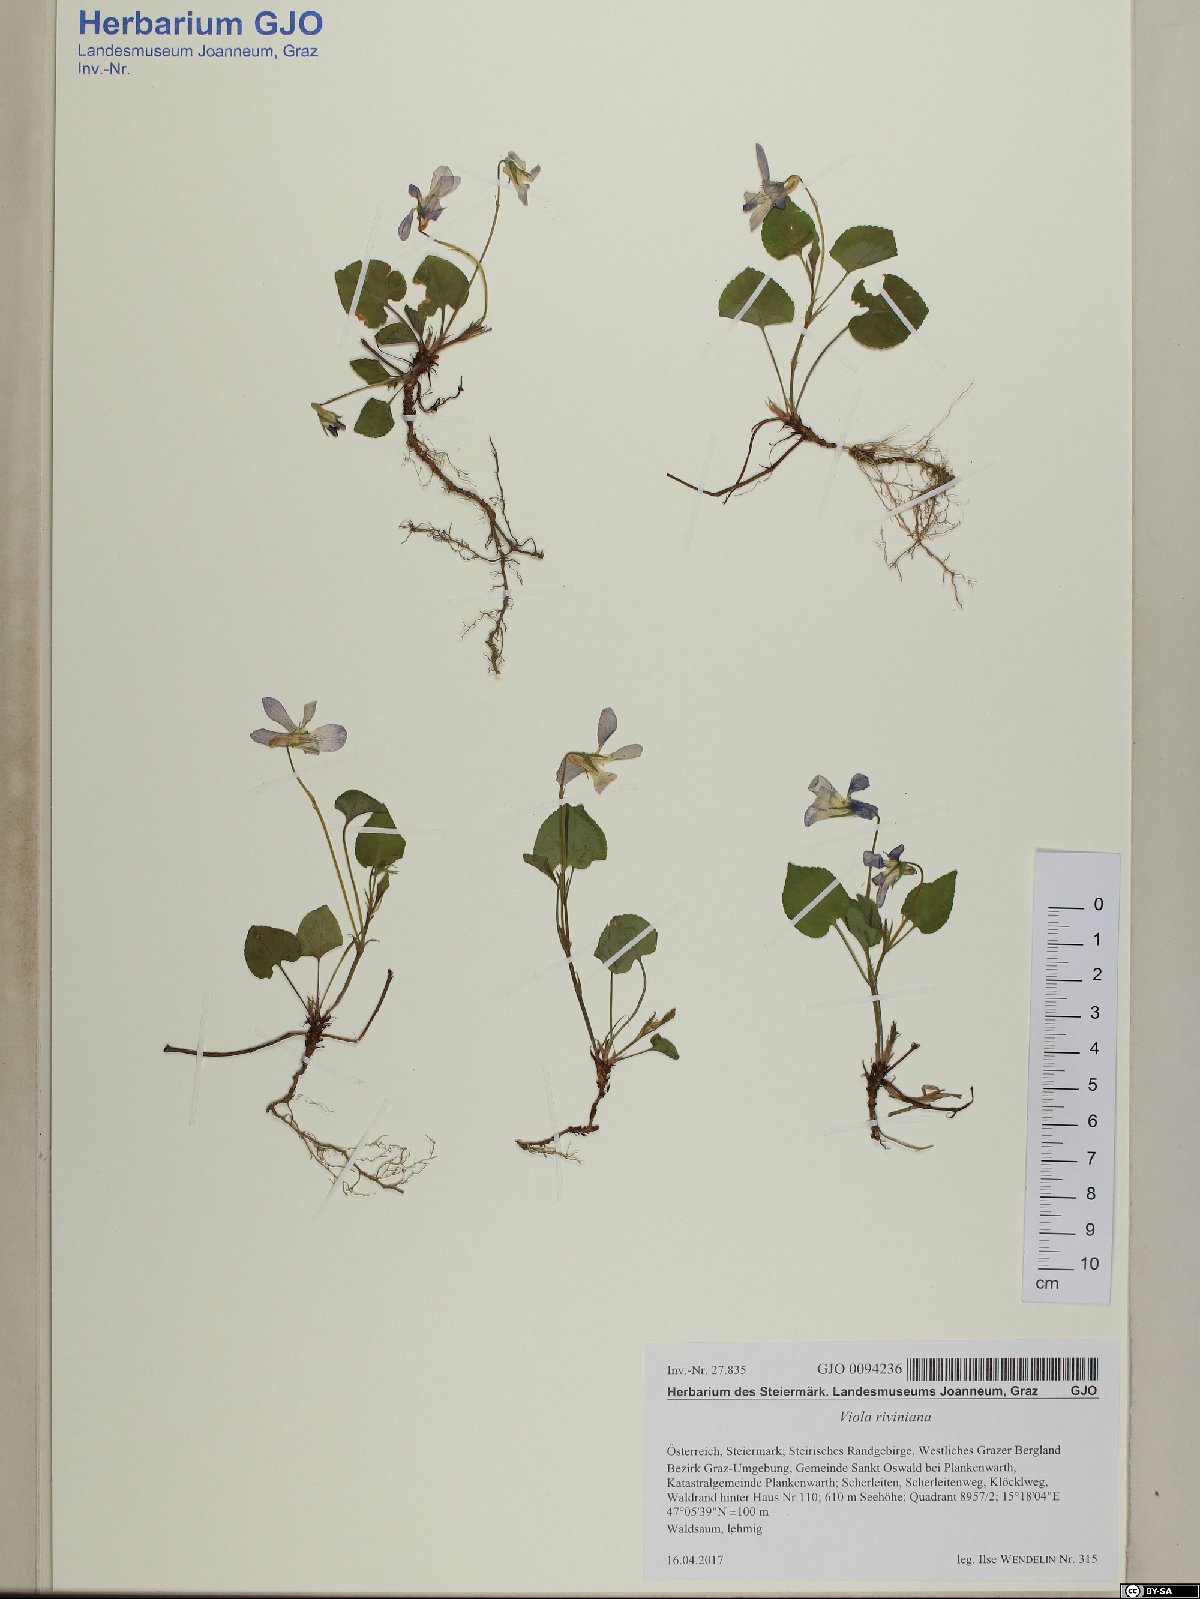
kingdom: Plantae
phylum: Tracheophyta
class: Magnoliopsida
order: Malpighiales
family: Violaceae
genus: Viola
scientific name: Viola riviniana
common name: Common dog-violet
